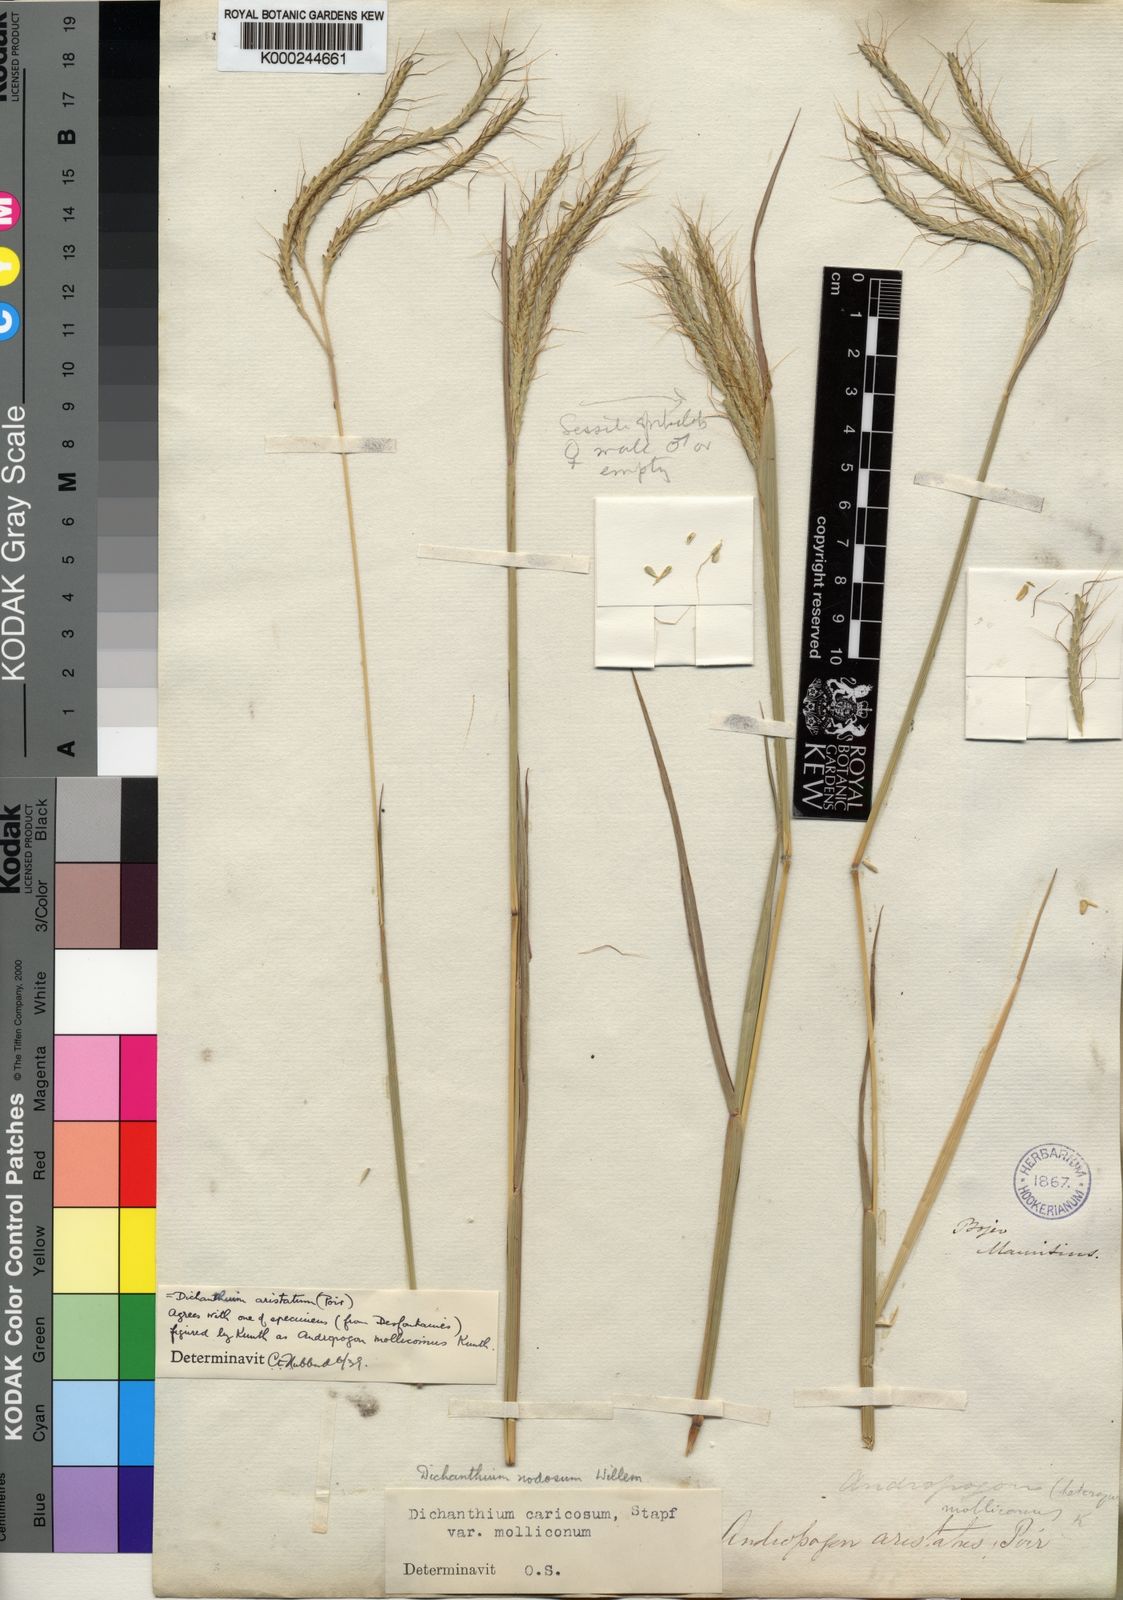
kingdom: Plantae
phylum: Tracheophyta
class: Liliopsida
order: Poales
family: Poaceae
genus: Dichanthium
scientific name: Dichanthium aristatum
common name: Angleton bluestem
